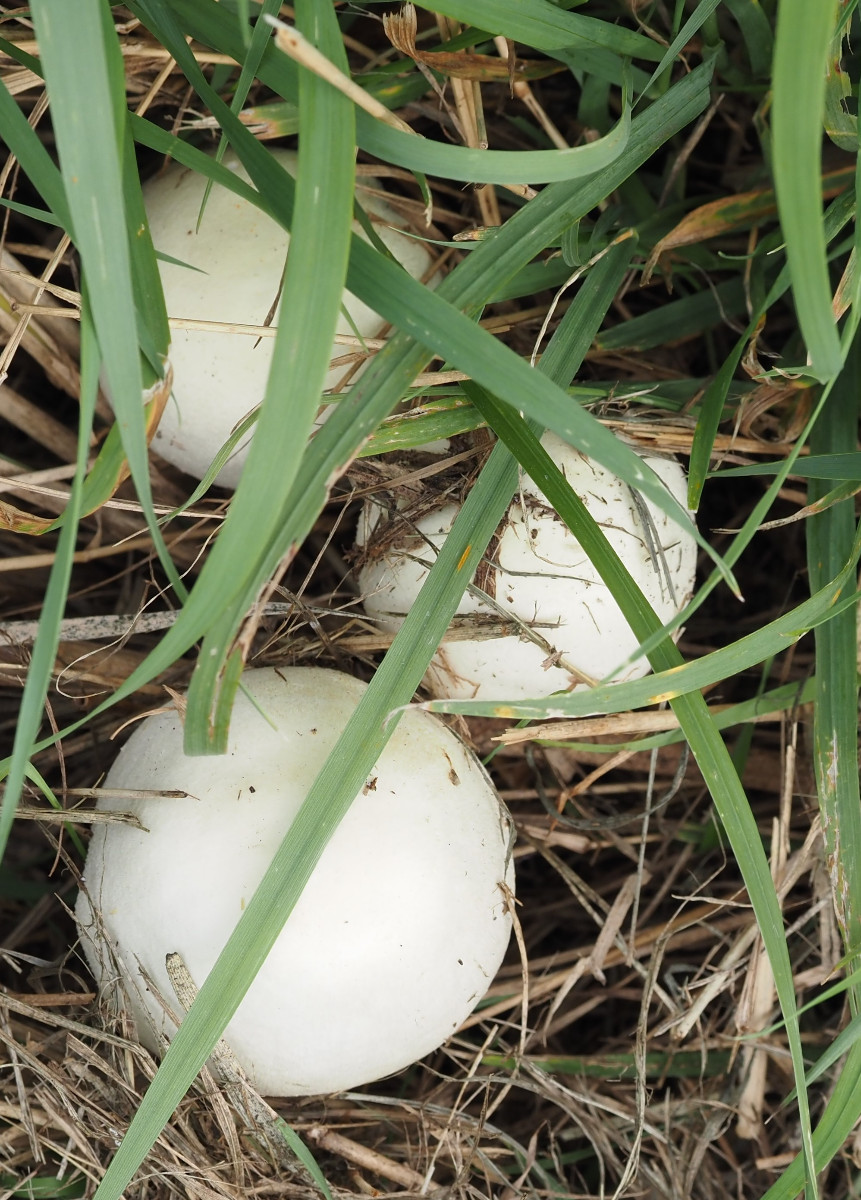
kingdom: Fungi
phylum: Basidiomycota
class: Agaricomycetes
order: Agaricales
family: Agaricaceae
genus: Agaricus
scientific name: Agaricus arvensis
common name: ager-champignon
